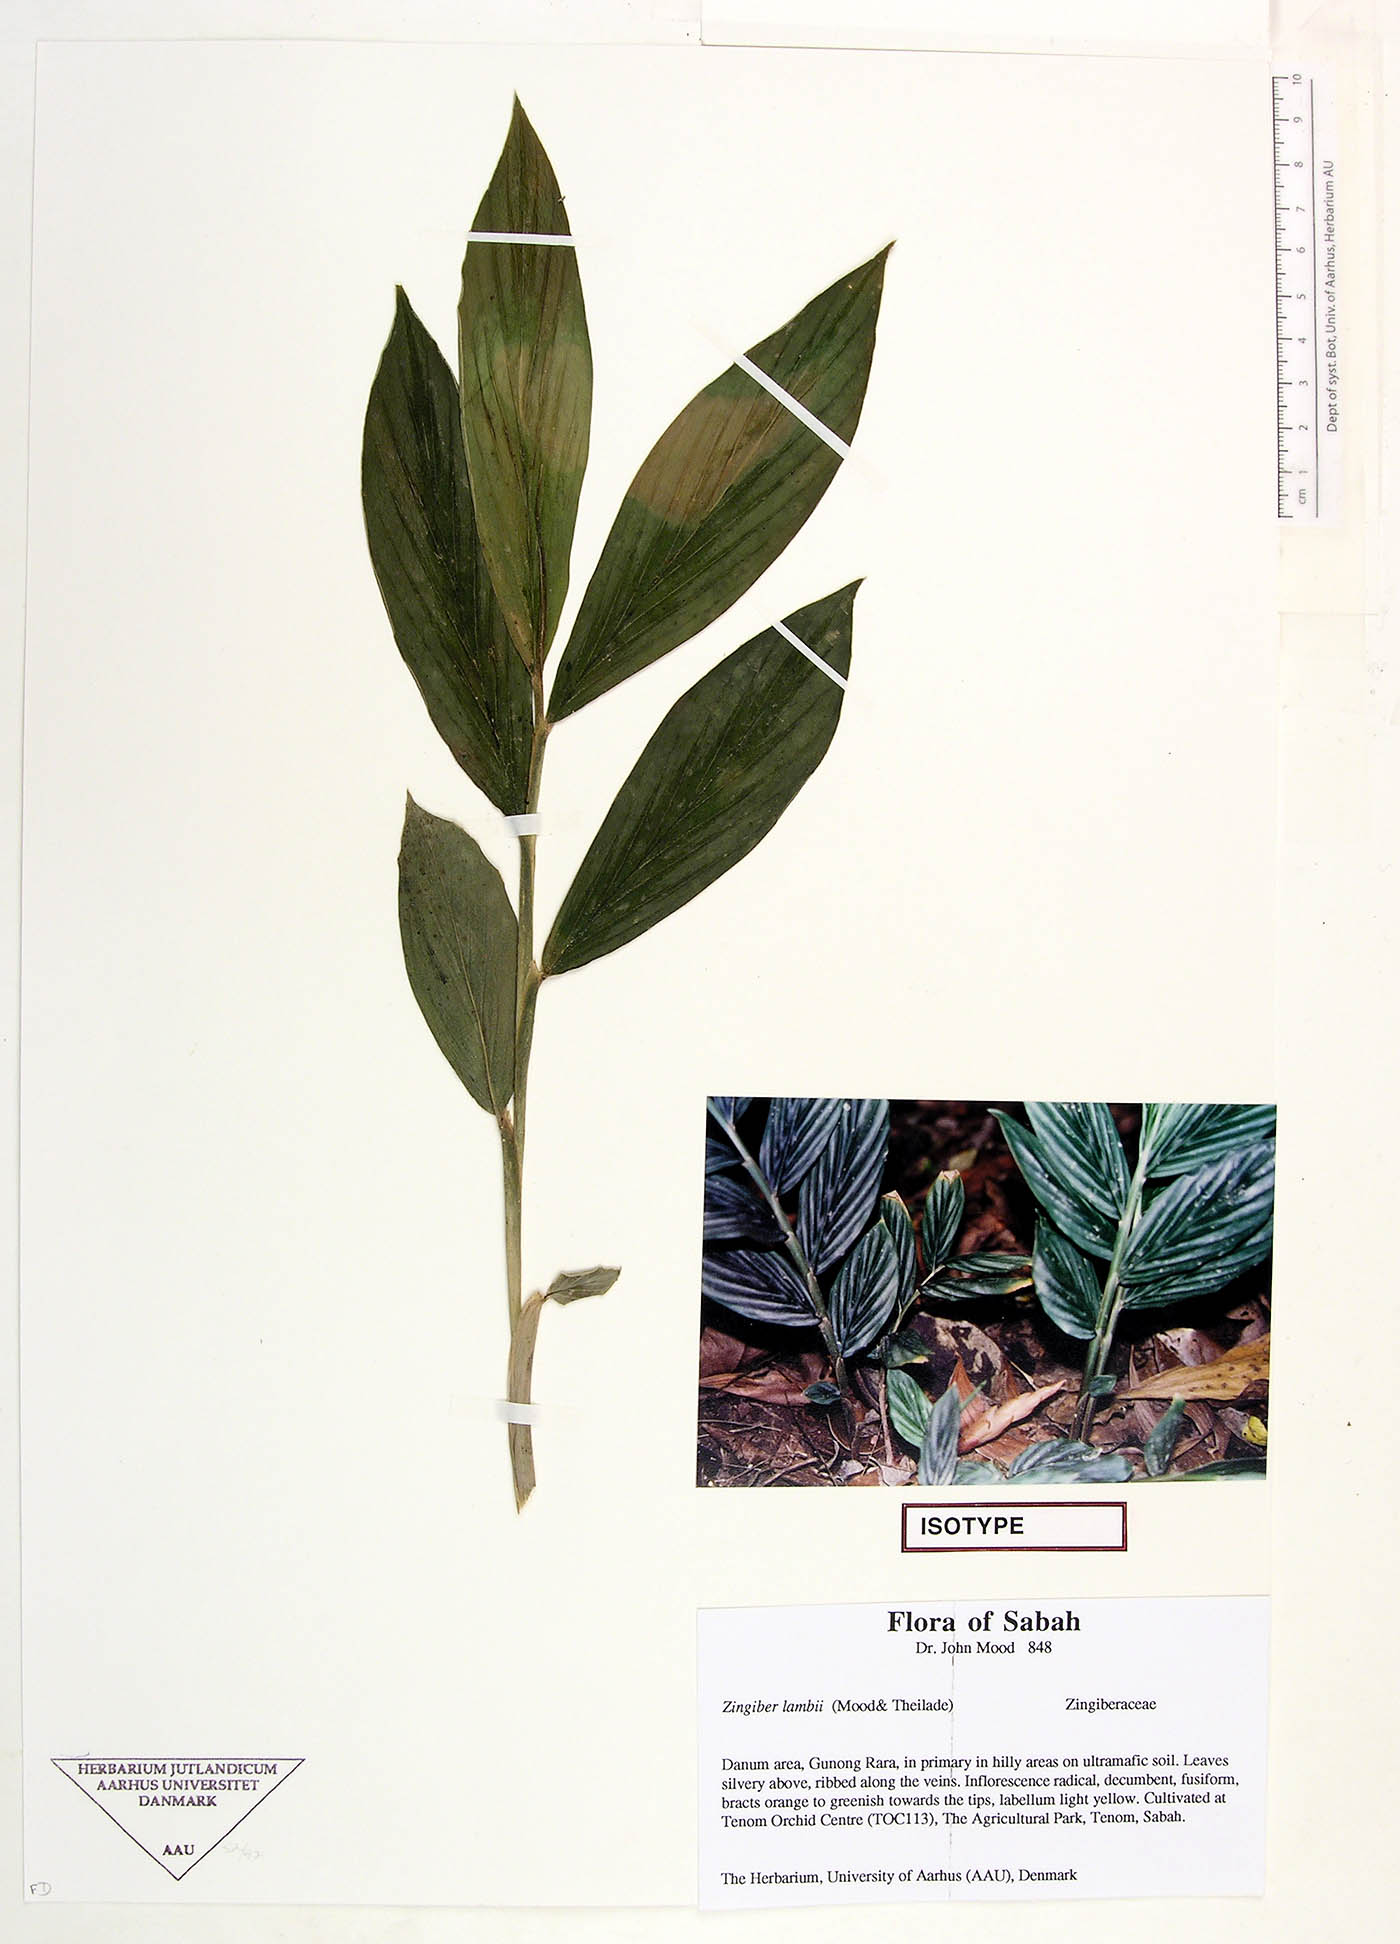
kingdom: Plantae
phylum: Tracheophyta
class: Liliopsida
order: Zingiberales
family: Zingiberaceae
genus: Zingiber
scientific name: Zingiber lambii
